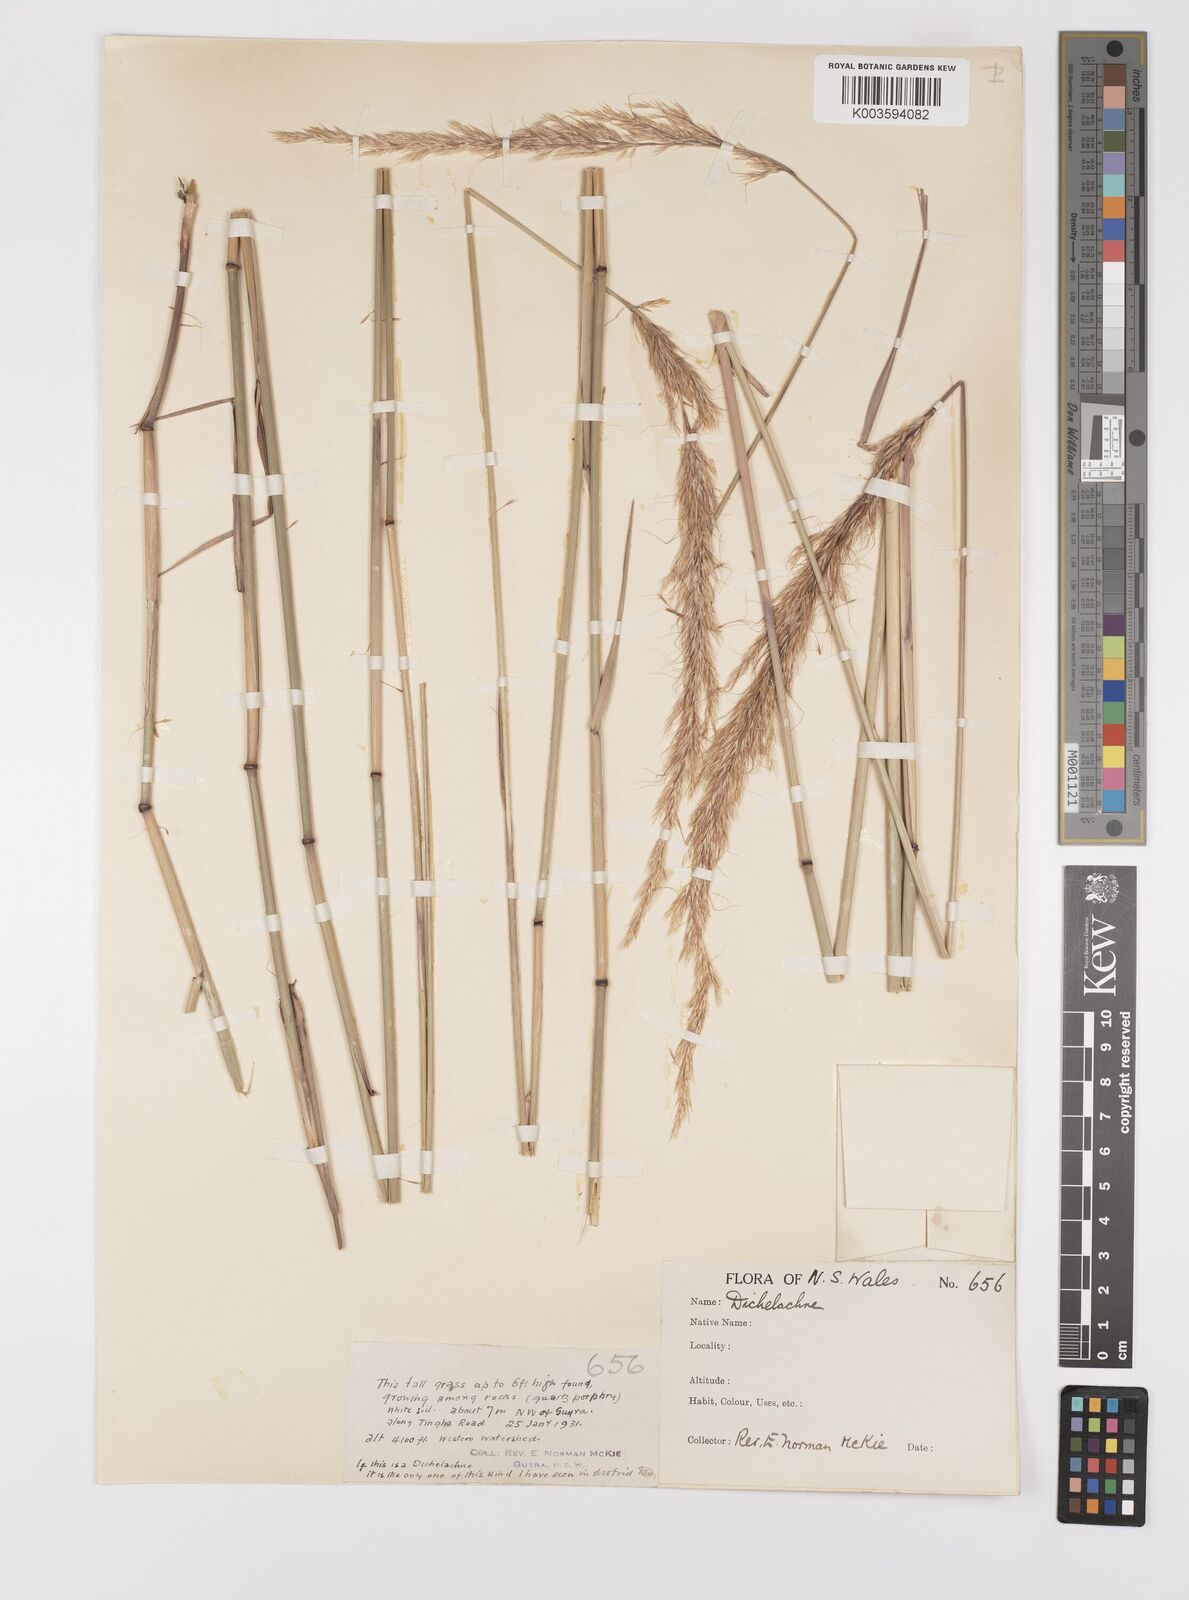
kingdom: Plantae
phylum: Tracheophyta
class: Liliopsida
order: Poales
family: Poaceae
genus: Dichelachne
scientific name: Dichelachne rara
